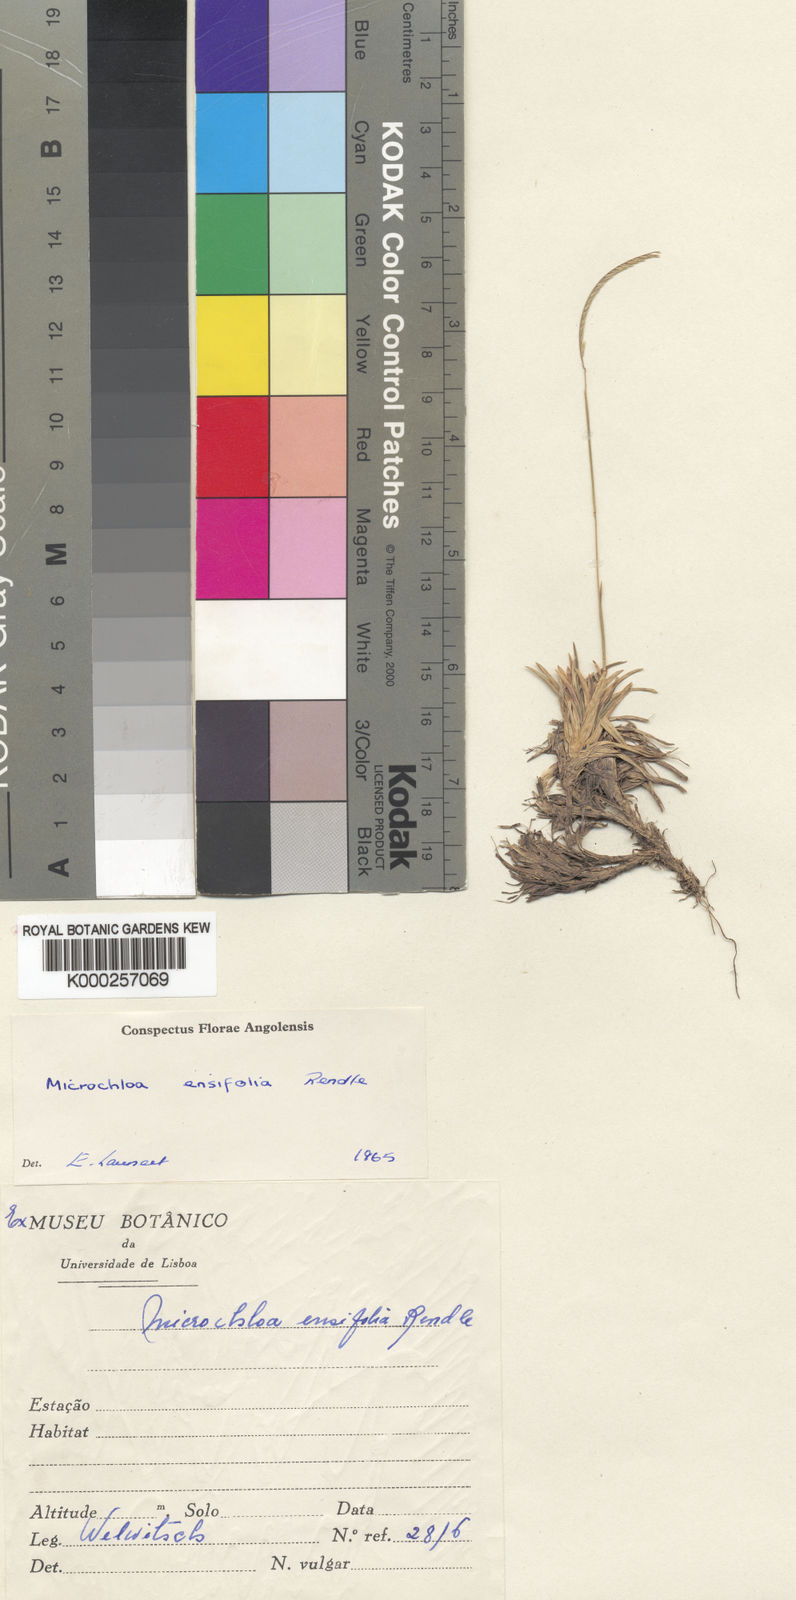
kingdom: Plantae
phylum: Tracheophyta
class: Liliopsida
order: Poales
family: Poaceae
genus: Microchloa
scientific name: Microchloa ensifolia
